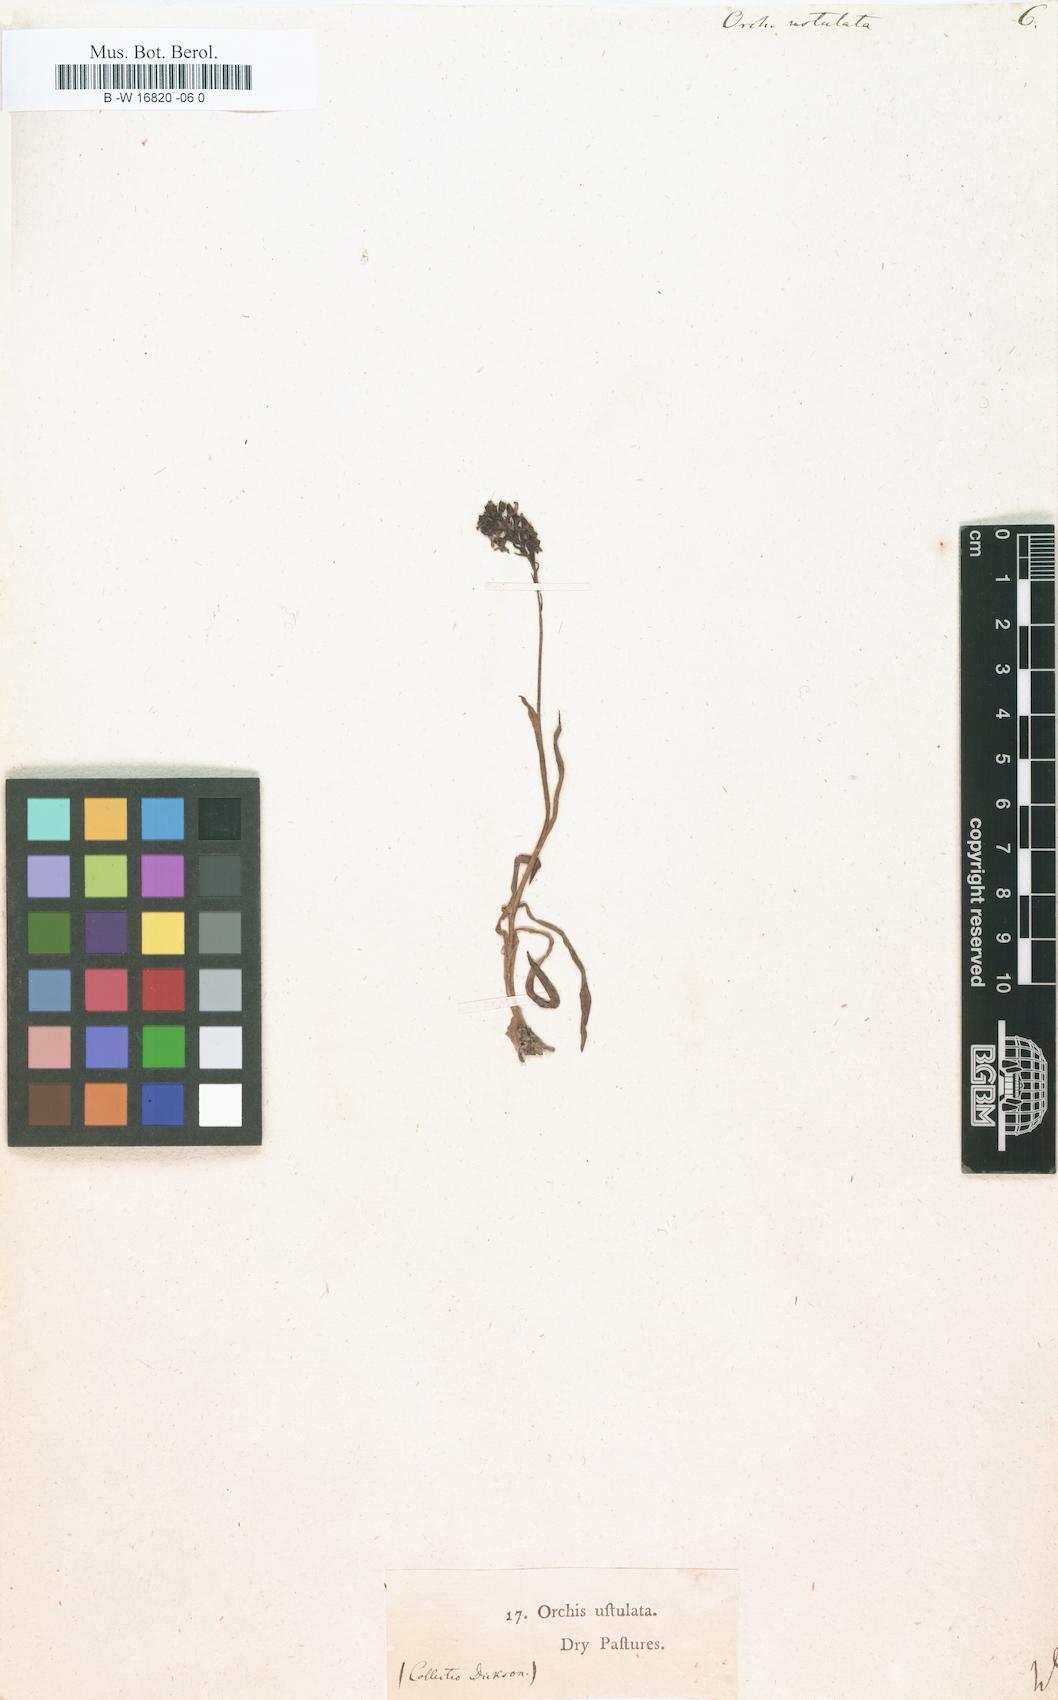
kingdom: Plantae
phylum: Tracheophyta
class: Liliopsida
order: Asparagales
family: Orchidaceae
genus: Neotinea
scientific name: Neotinea ustulata
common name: Burnt orchid
